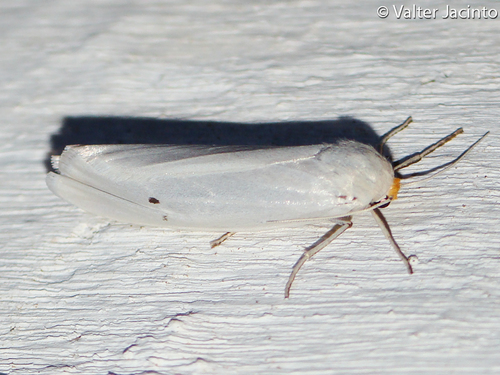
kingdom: Animalia
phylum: Arthropoda
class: Insecta
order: Lepidoptera
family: Erebidae
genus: Coscinia
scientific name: Coscinia cribraria
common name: Speckled footman
